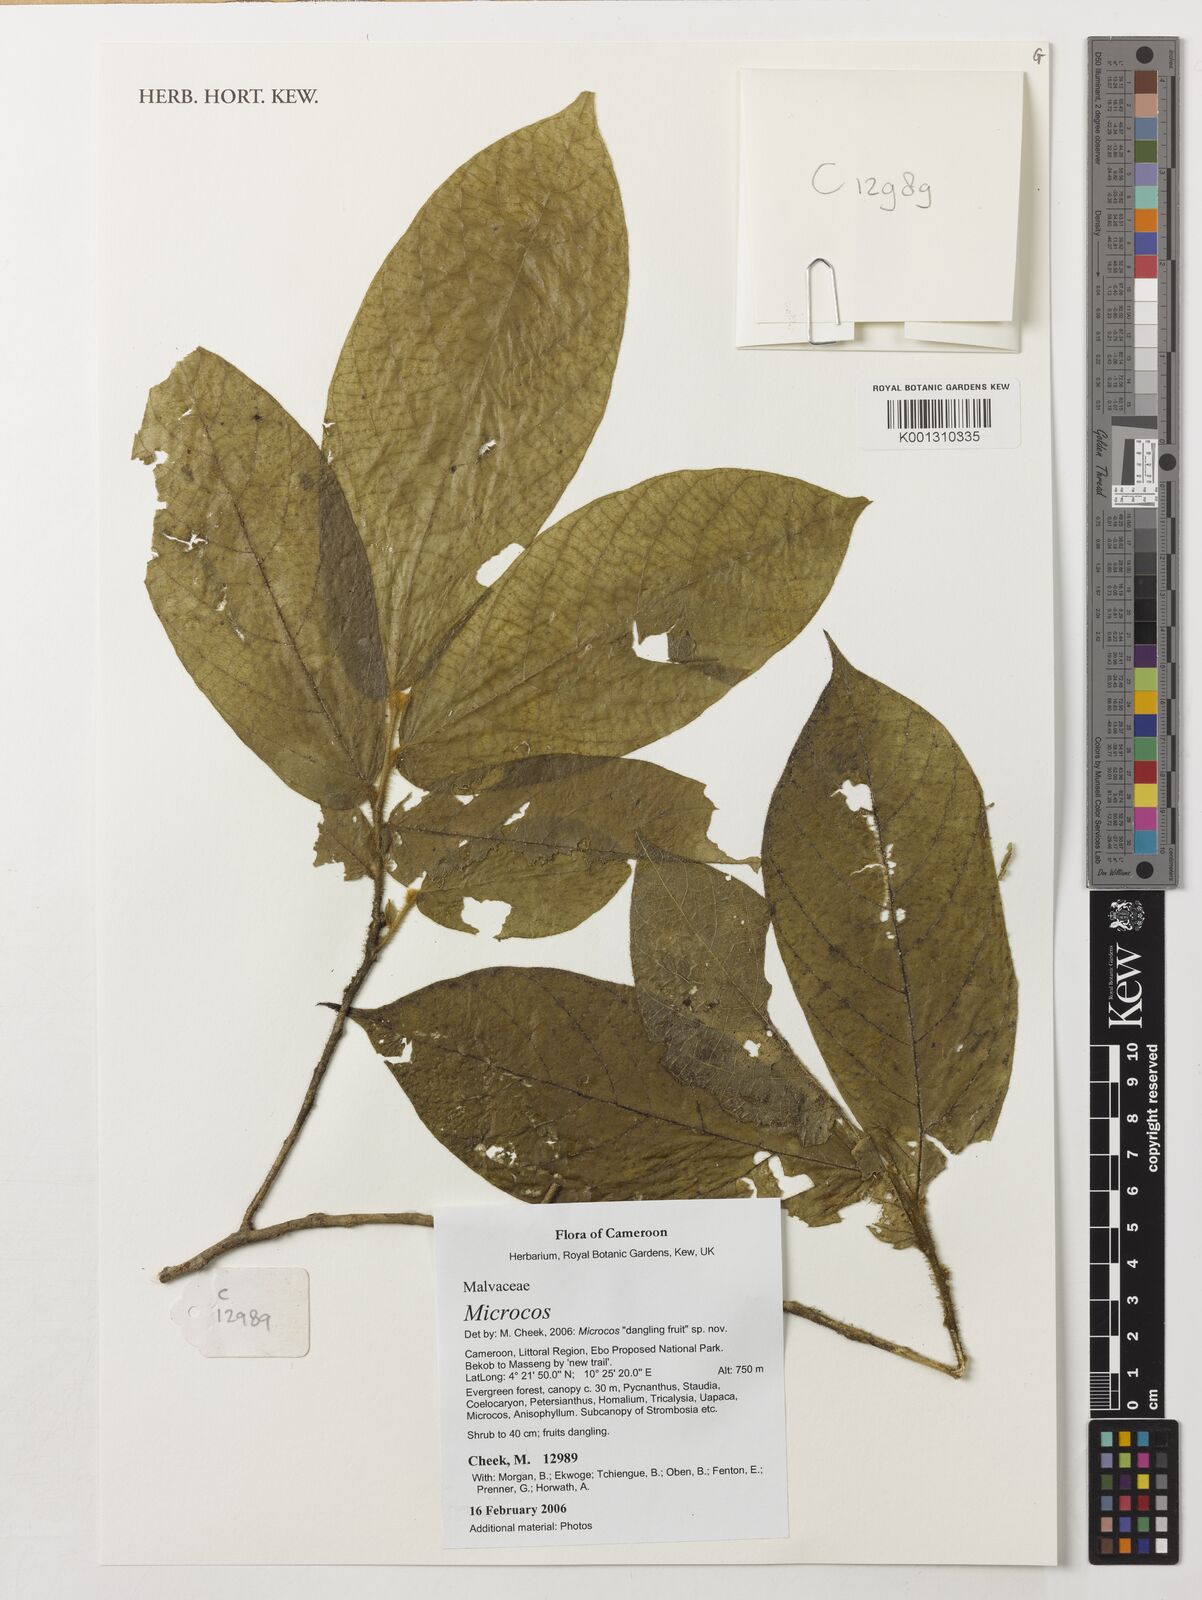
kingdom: Plantae
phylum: Tracheophyta
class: Magnoliopsida
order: Malvales
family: Malvaceae
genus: Microcos
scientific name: Microcos
